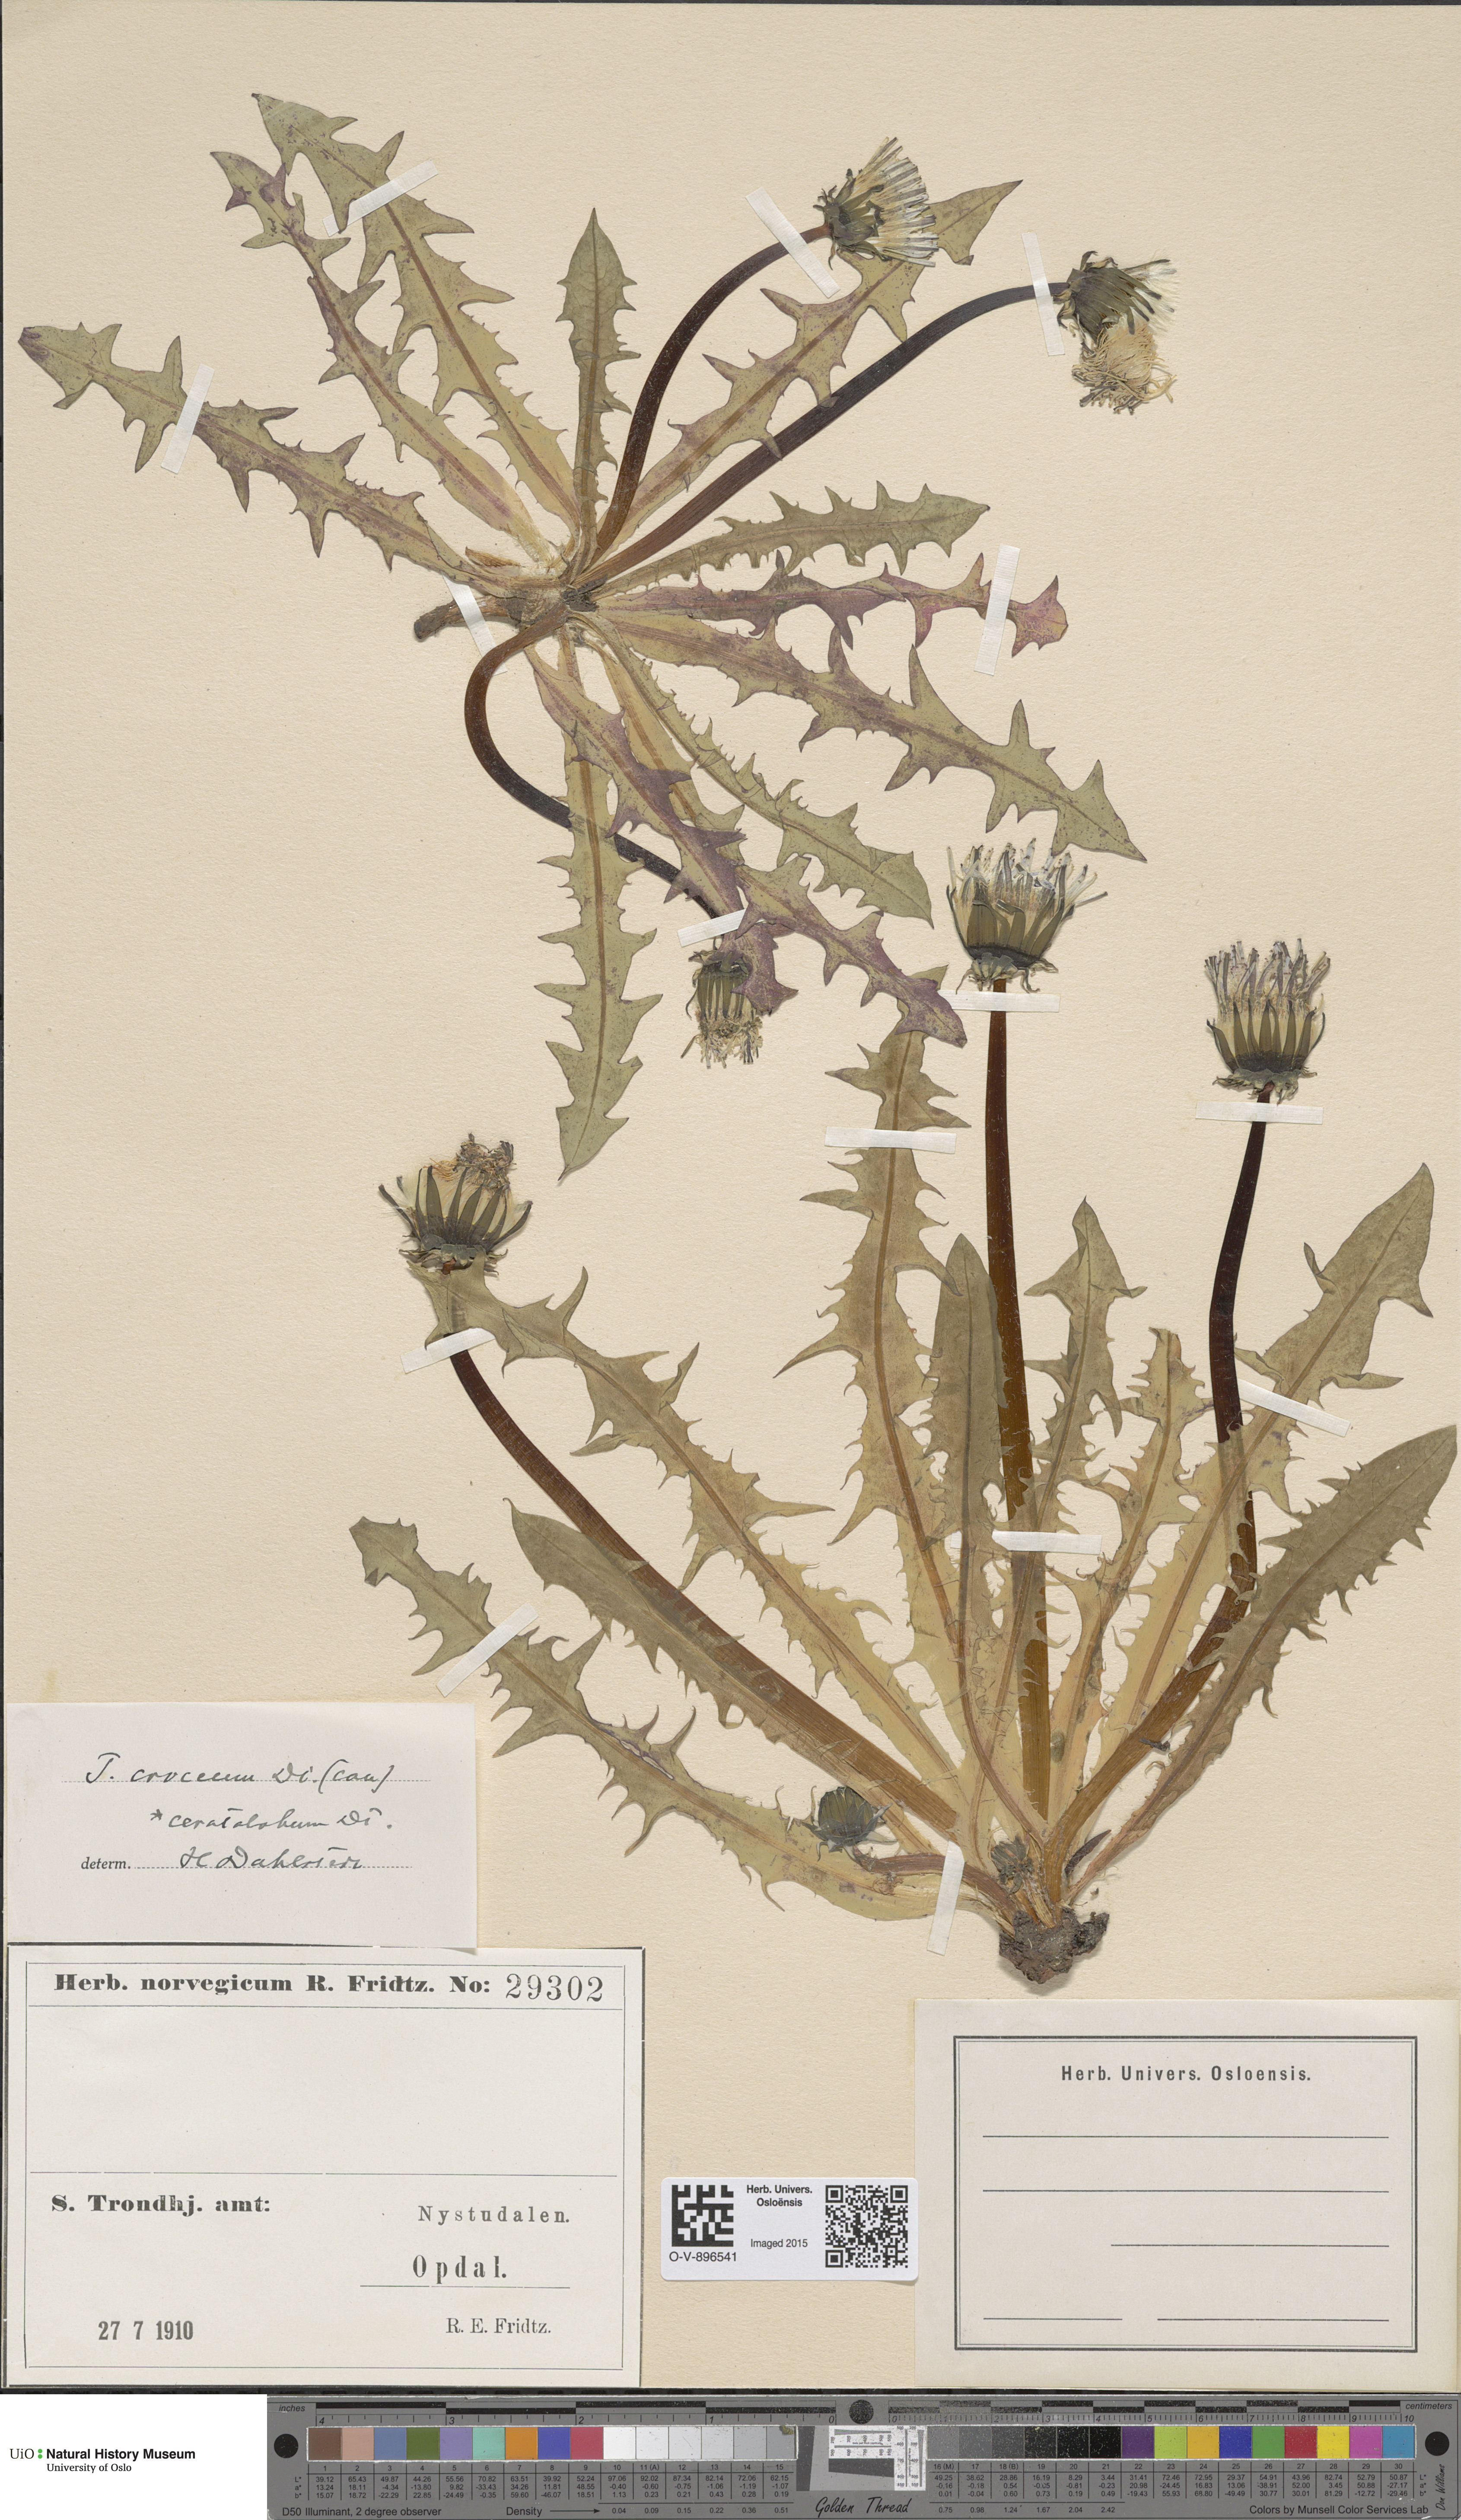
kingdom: Plantae
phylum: Tracheophyta
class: Magnoliopsida
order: Asterales
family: Asteraceae
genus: Taraxacum
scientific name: Taraxacum croceum
